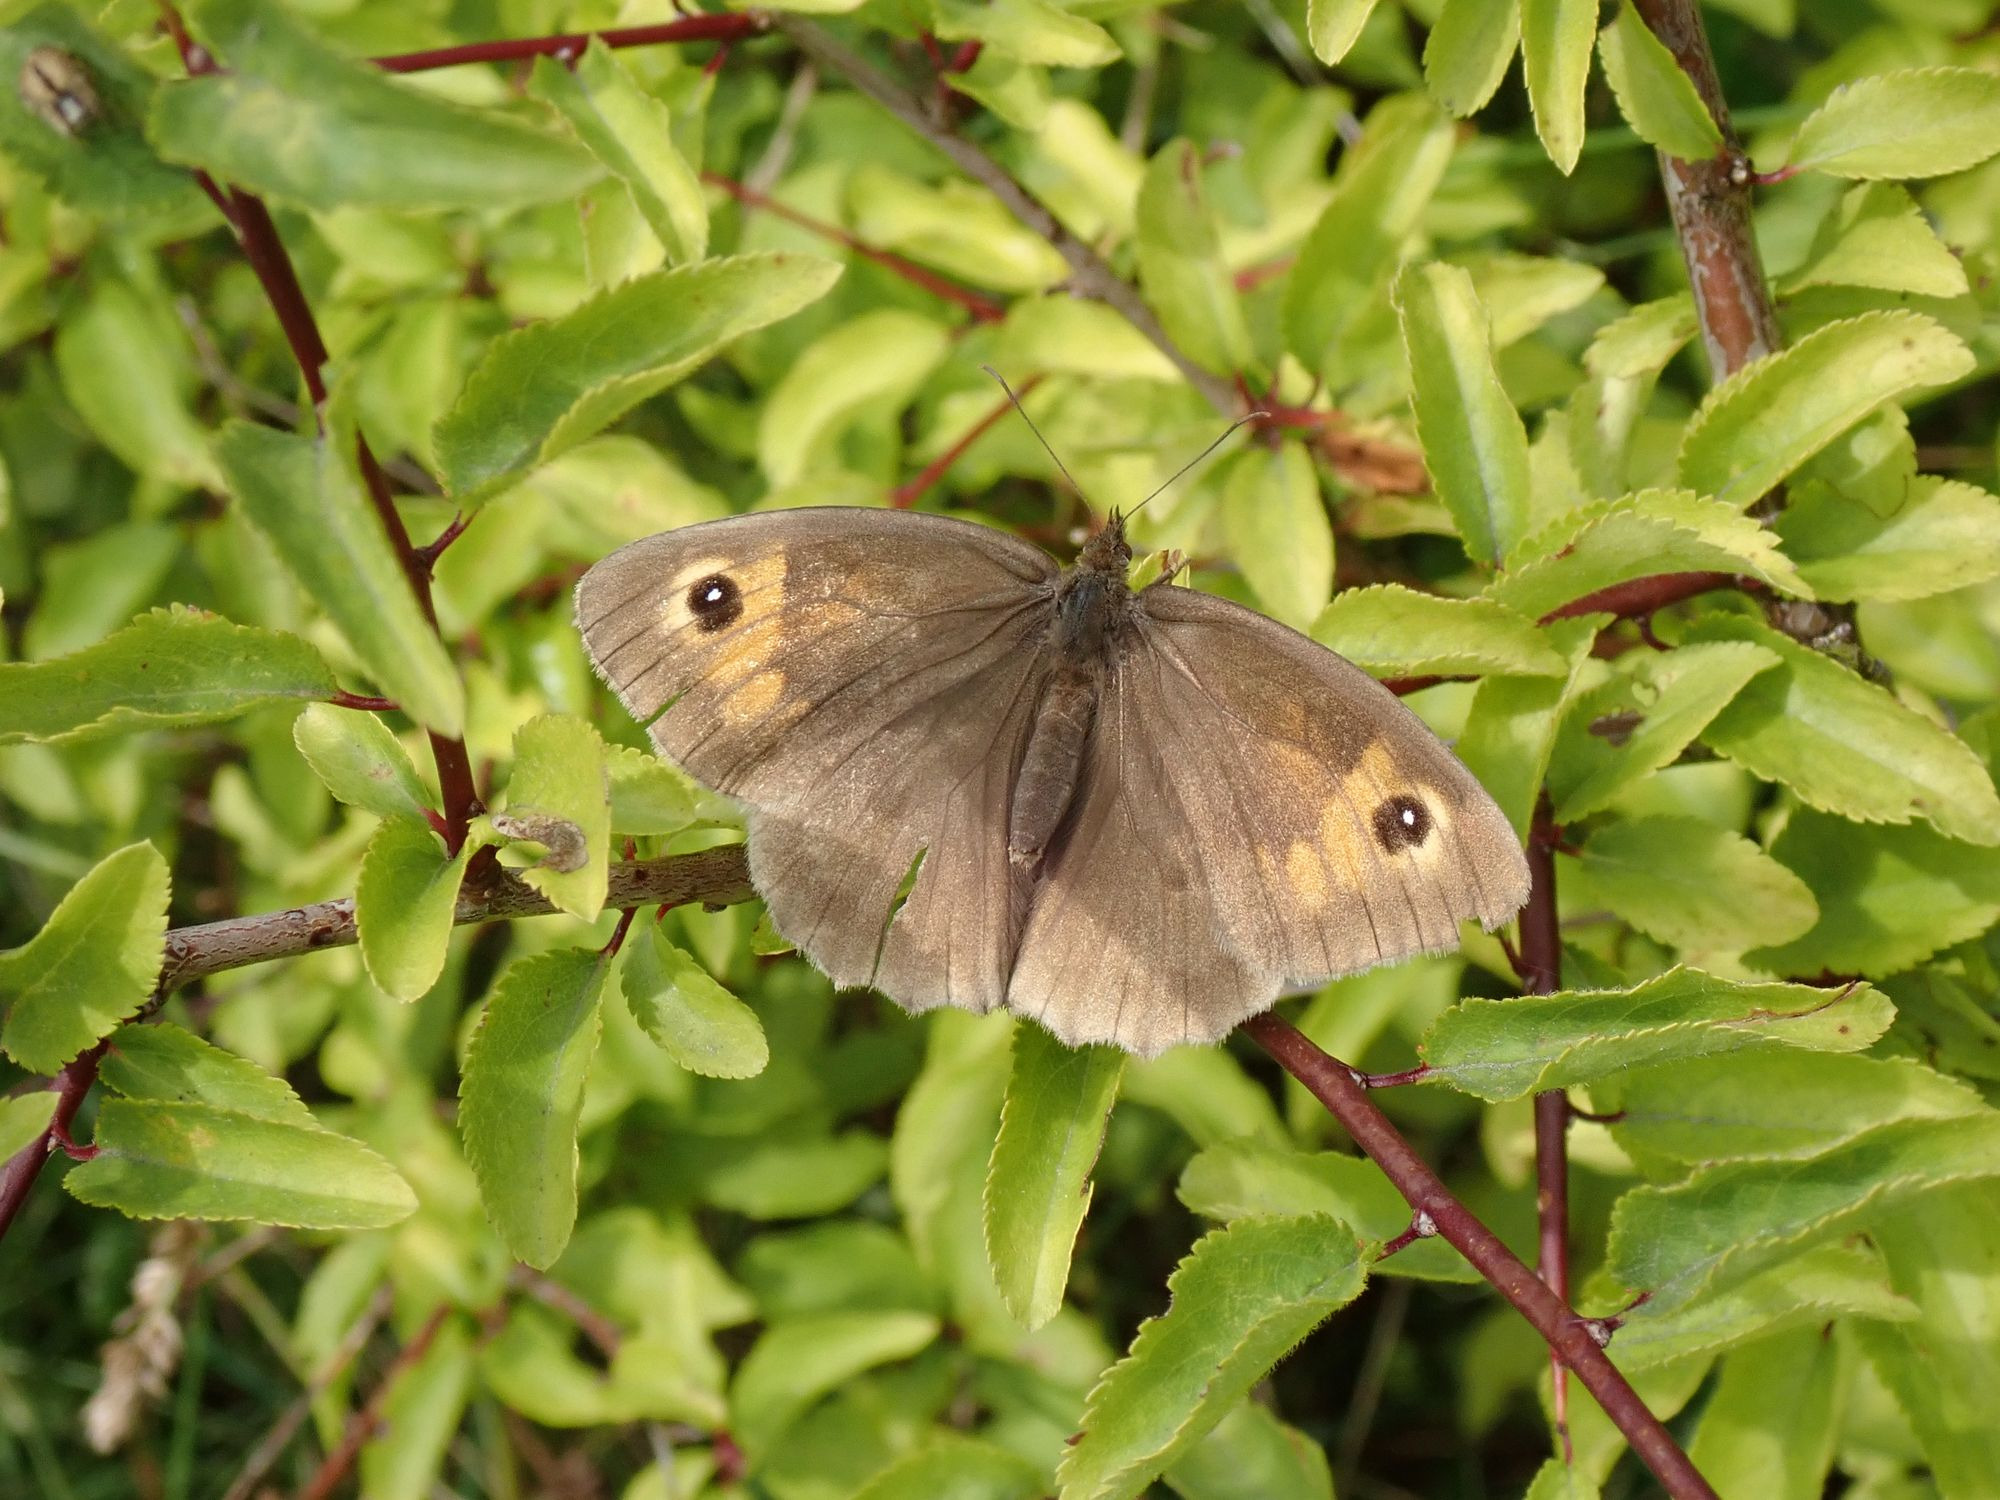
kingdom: Animalia
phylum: Arthropoda
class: Insecta
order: Lepidoptera
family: Nymphalidae
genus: Maniola
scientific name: Maniola jurtina
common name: Græsrandøje
